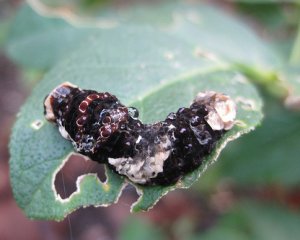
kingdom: Animalia
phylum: Arthropoda
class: Insecta
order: Lepidoptera
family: Papilionidae
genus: Papilio
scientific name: Papilio cresphontes
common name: Eastern Giant Swallowtail
